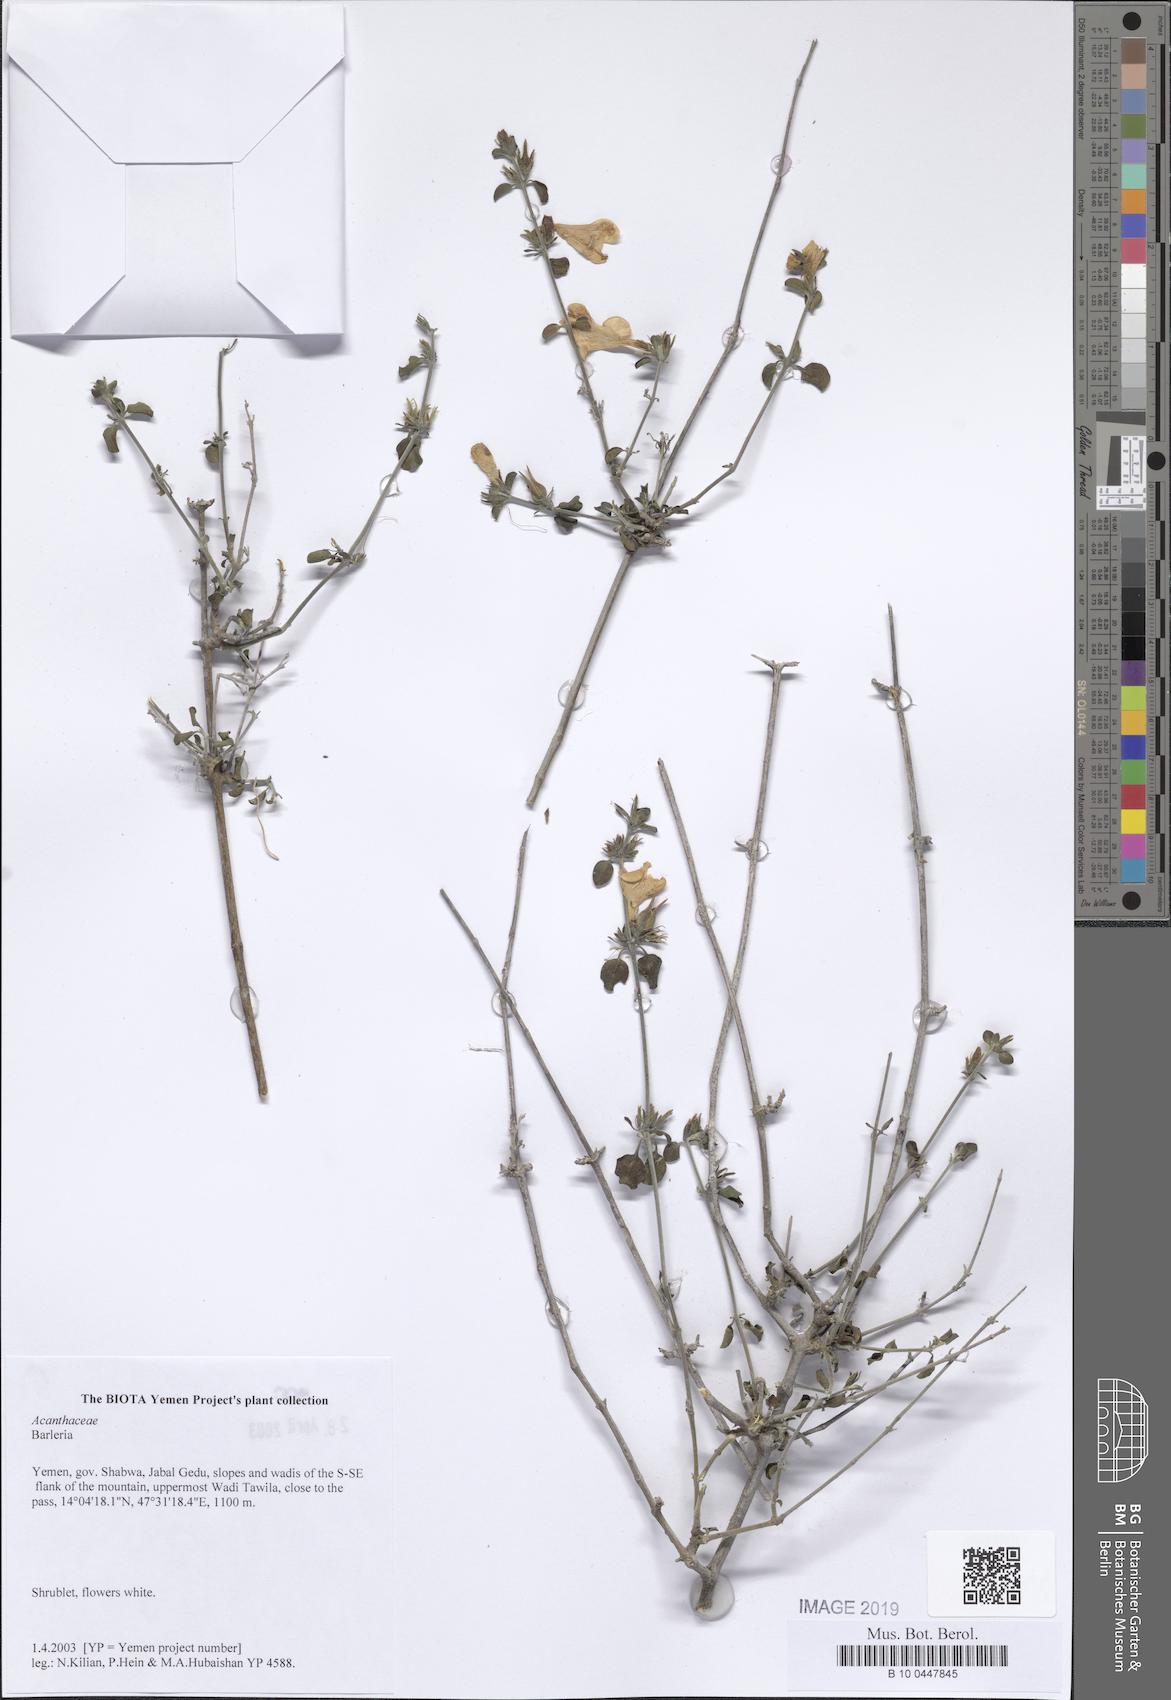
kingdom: Plantae
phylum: Tracheophyta
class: Magnoliopsida
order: Lamiales
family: Acanthaceae
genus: Barleria
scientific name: Barleria
